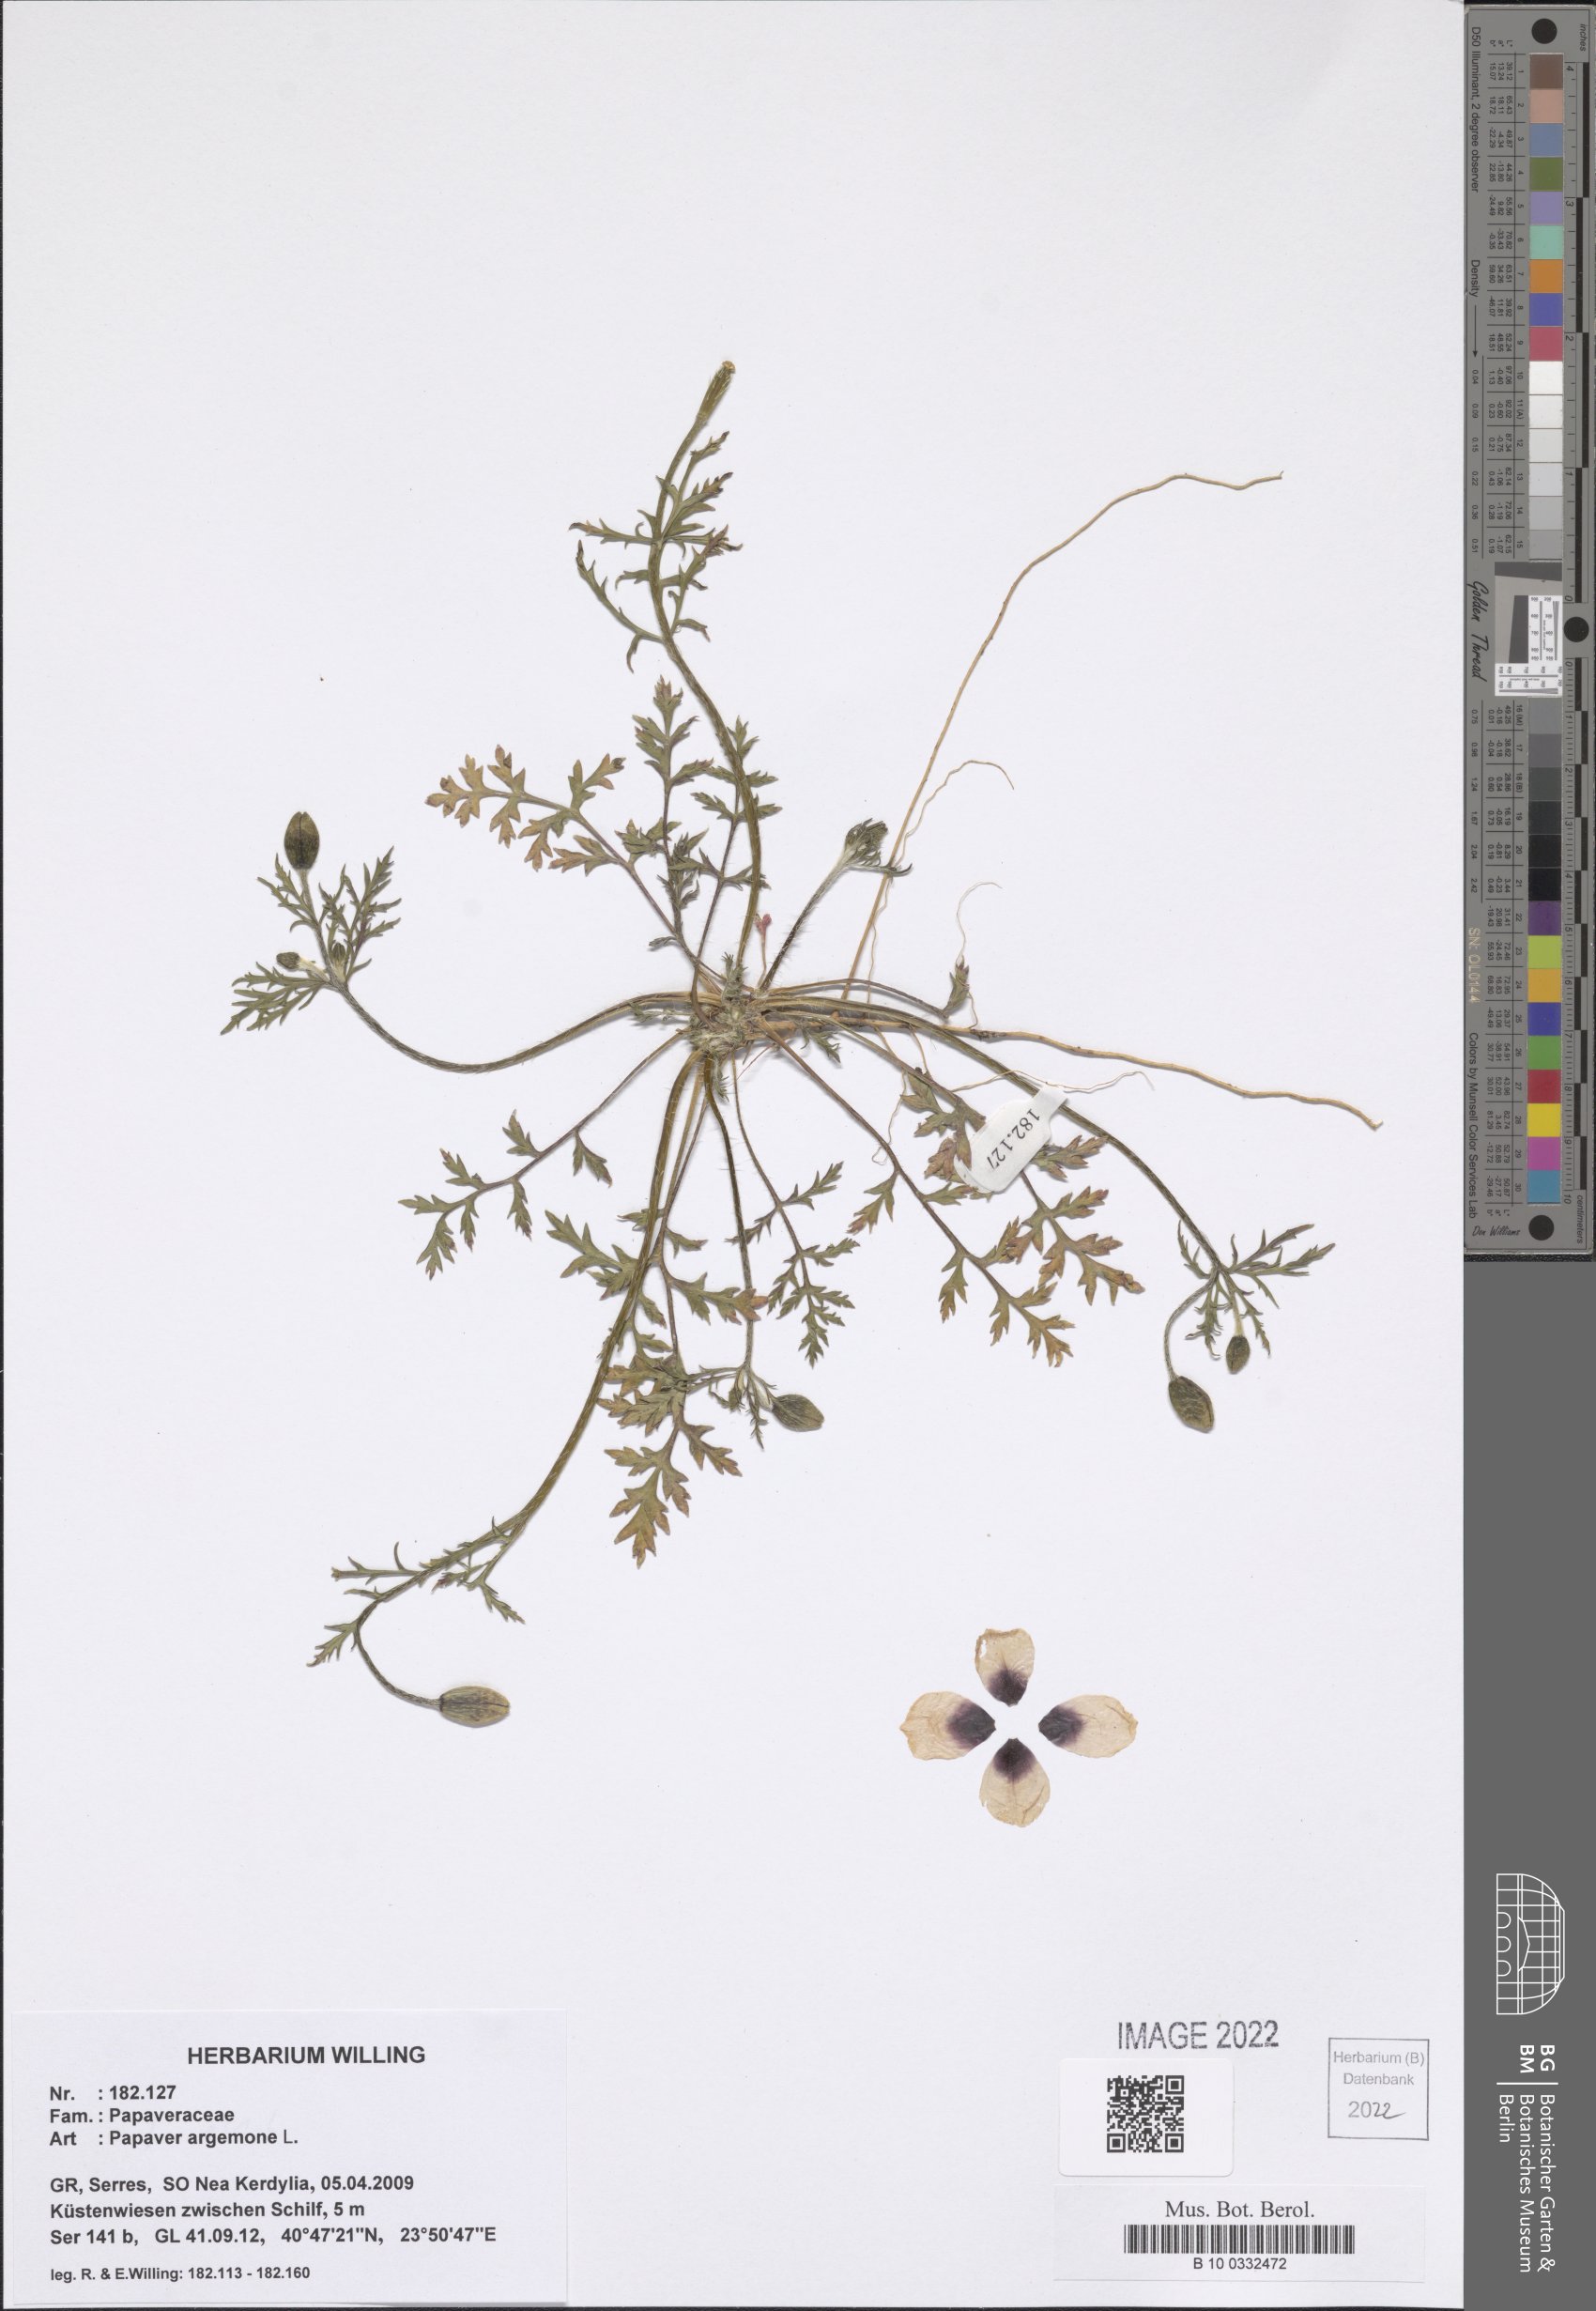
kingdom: Plantae
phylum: Tracheophyta
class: Magnoliopsida
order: Ranunculales
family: Papaveraceae
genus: Roemeria
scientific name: Roemeria argemone
